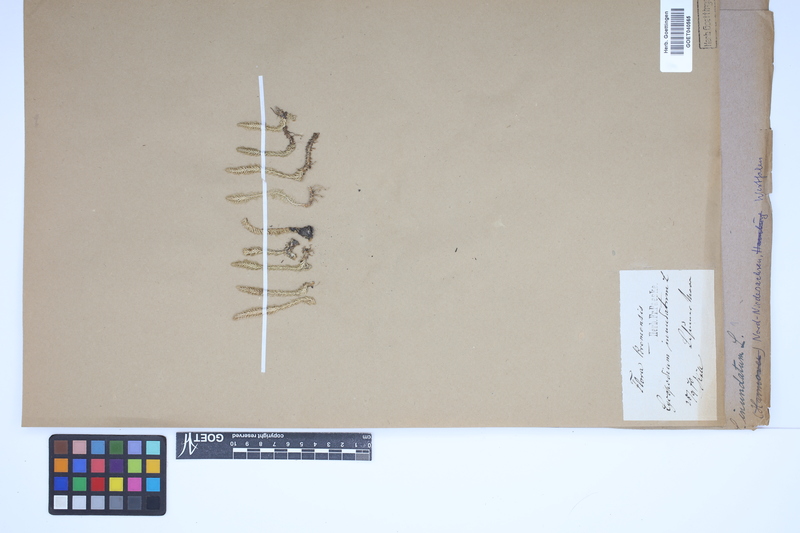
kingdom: Plantae
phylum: Tracheophyta
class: Lycopodiopsida
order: Lycopodiales
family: Lycopodiaceae
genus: Lycopodiella
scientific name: Lycopodiella inundata
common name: Marsh clubmoss
